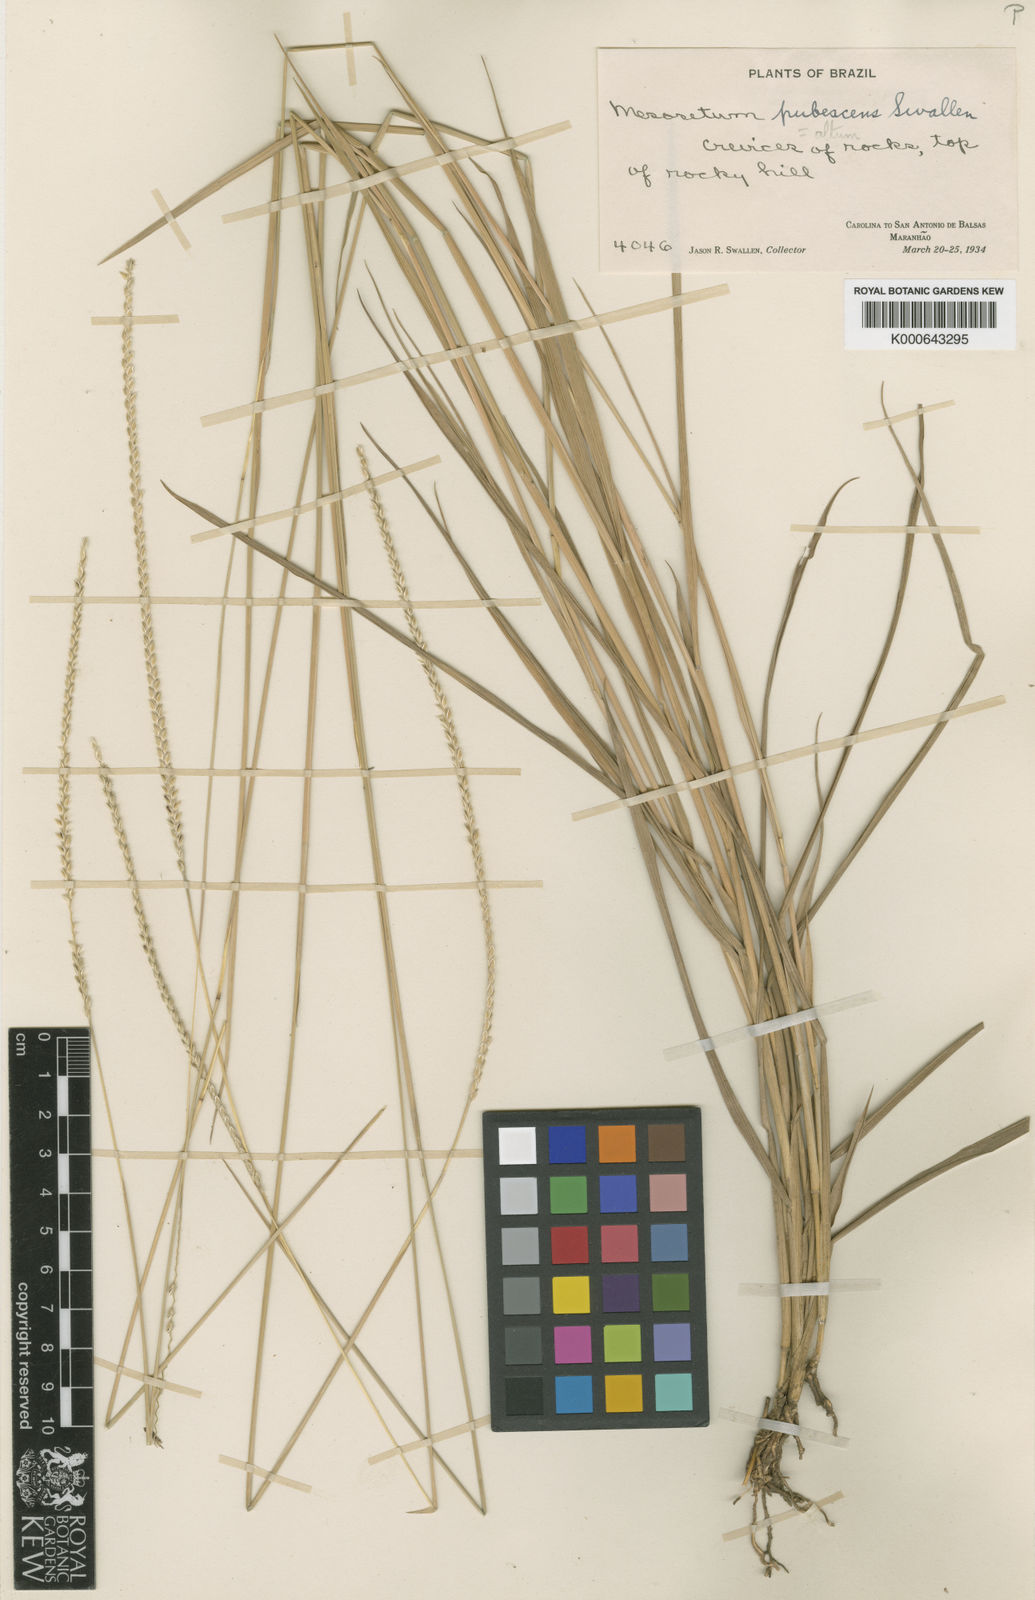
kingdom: Plantae
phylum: Tracheophyta
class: Liliopsida
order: Poales
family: Poaceae
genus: Mesosetum
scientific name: Mesosetum
